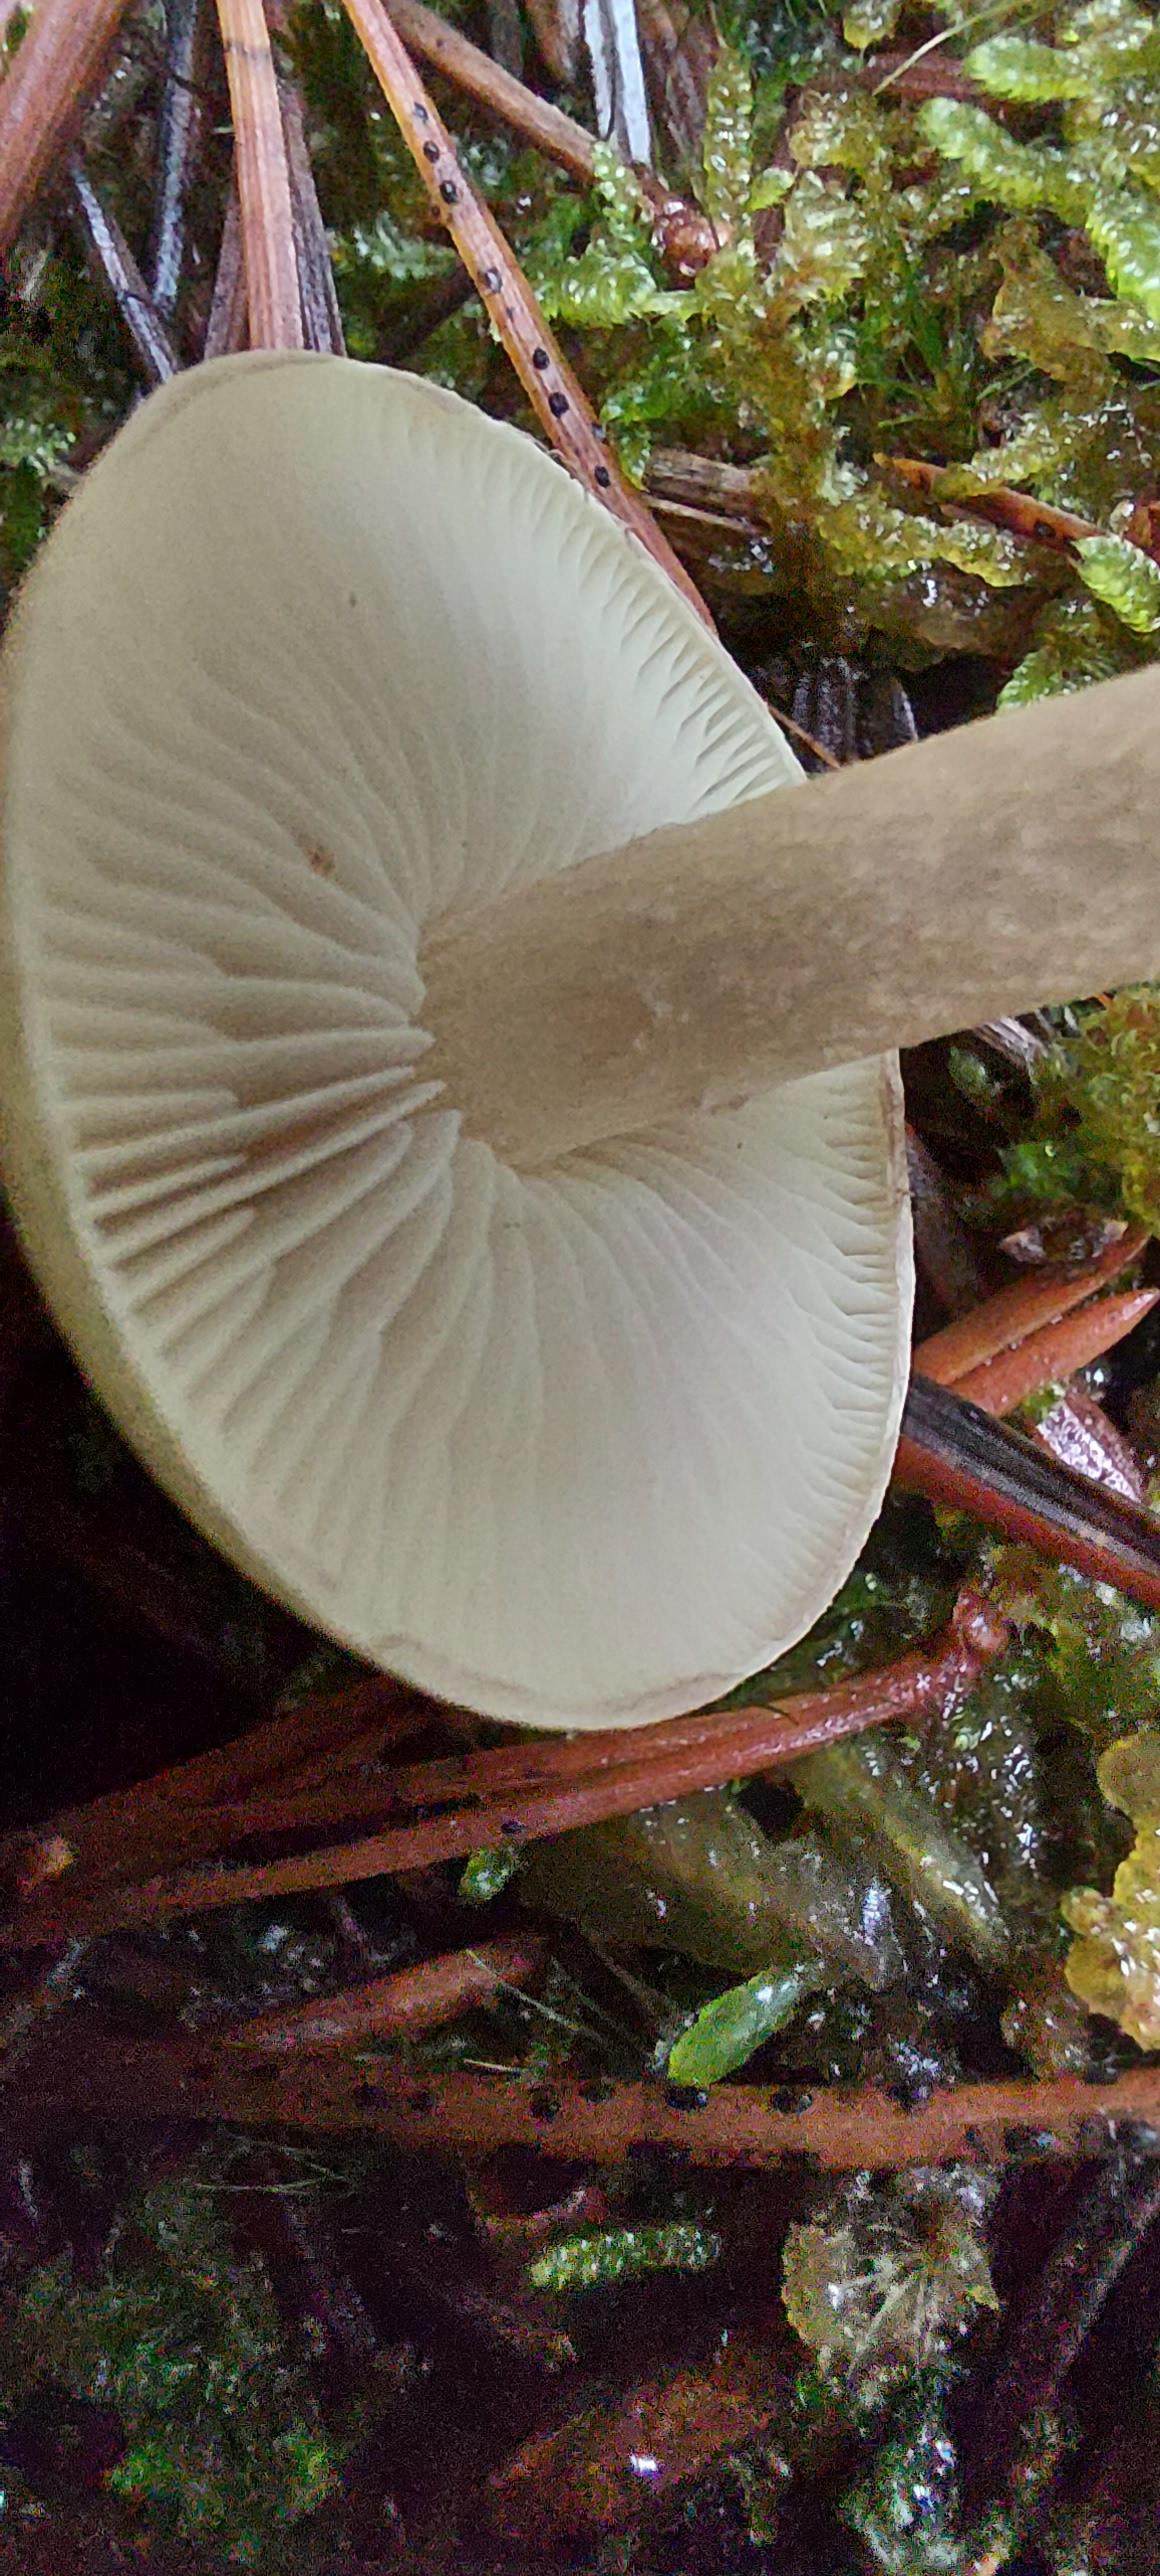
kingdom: Fungi
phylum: Basidiomycota
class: Agaricomycetes
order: Agaricales
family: Strophariaceae
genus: Hypholoma
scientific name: Hypholoma
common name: svovlhat
